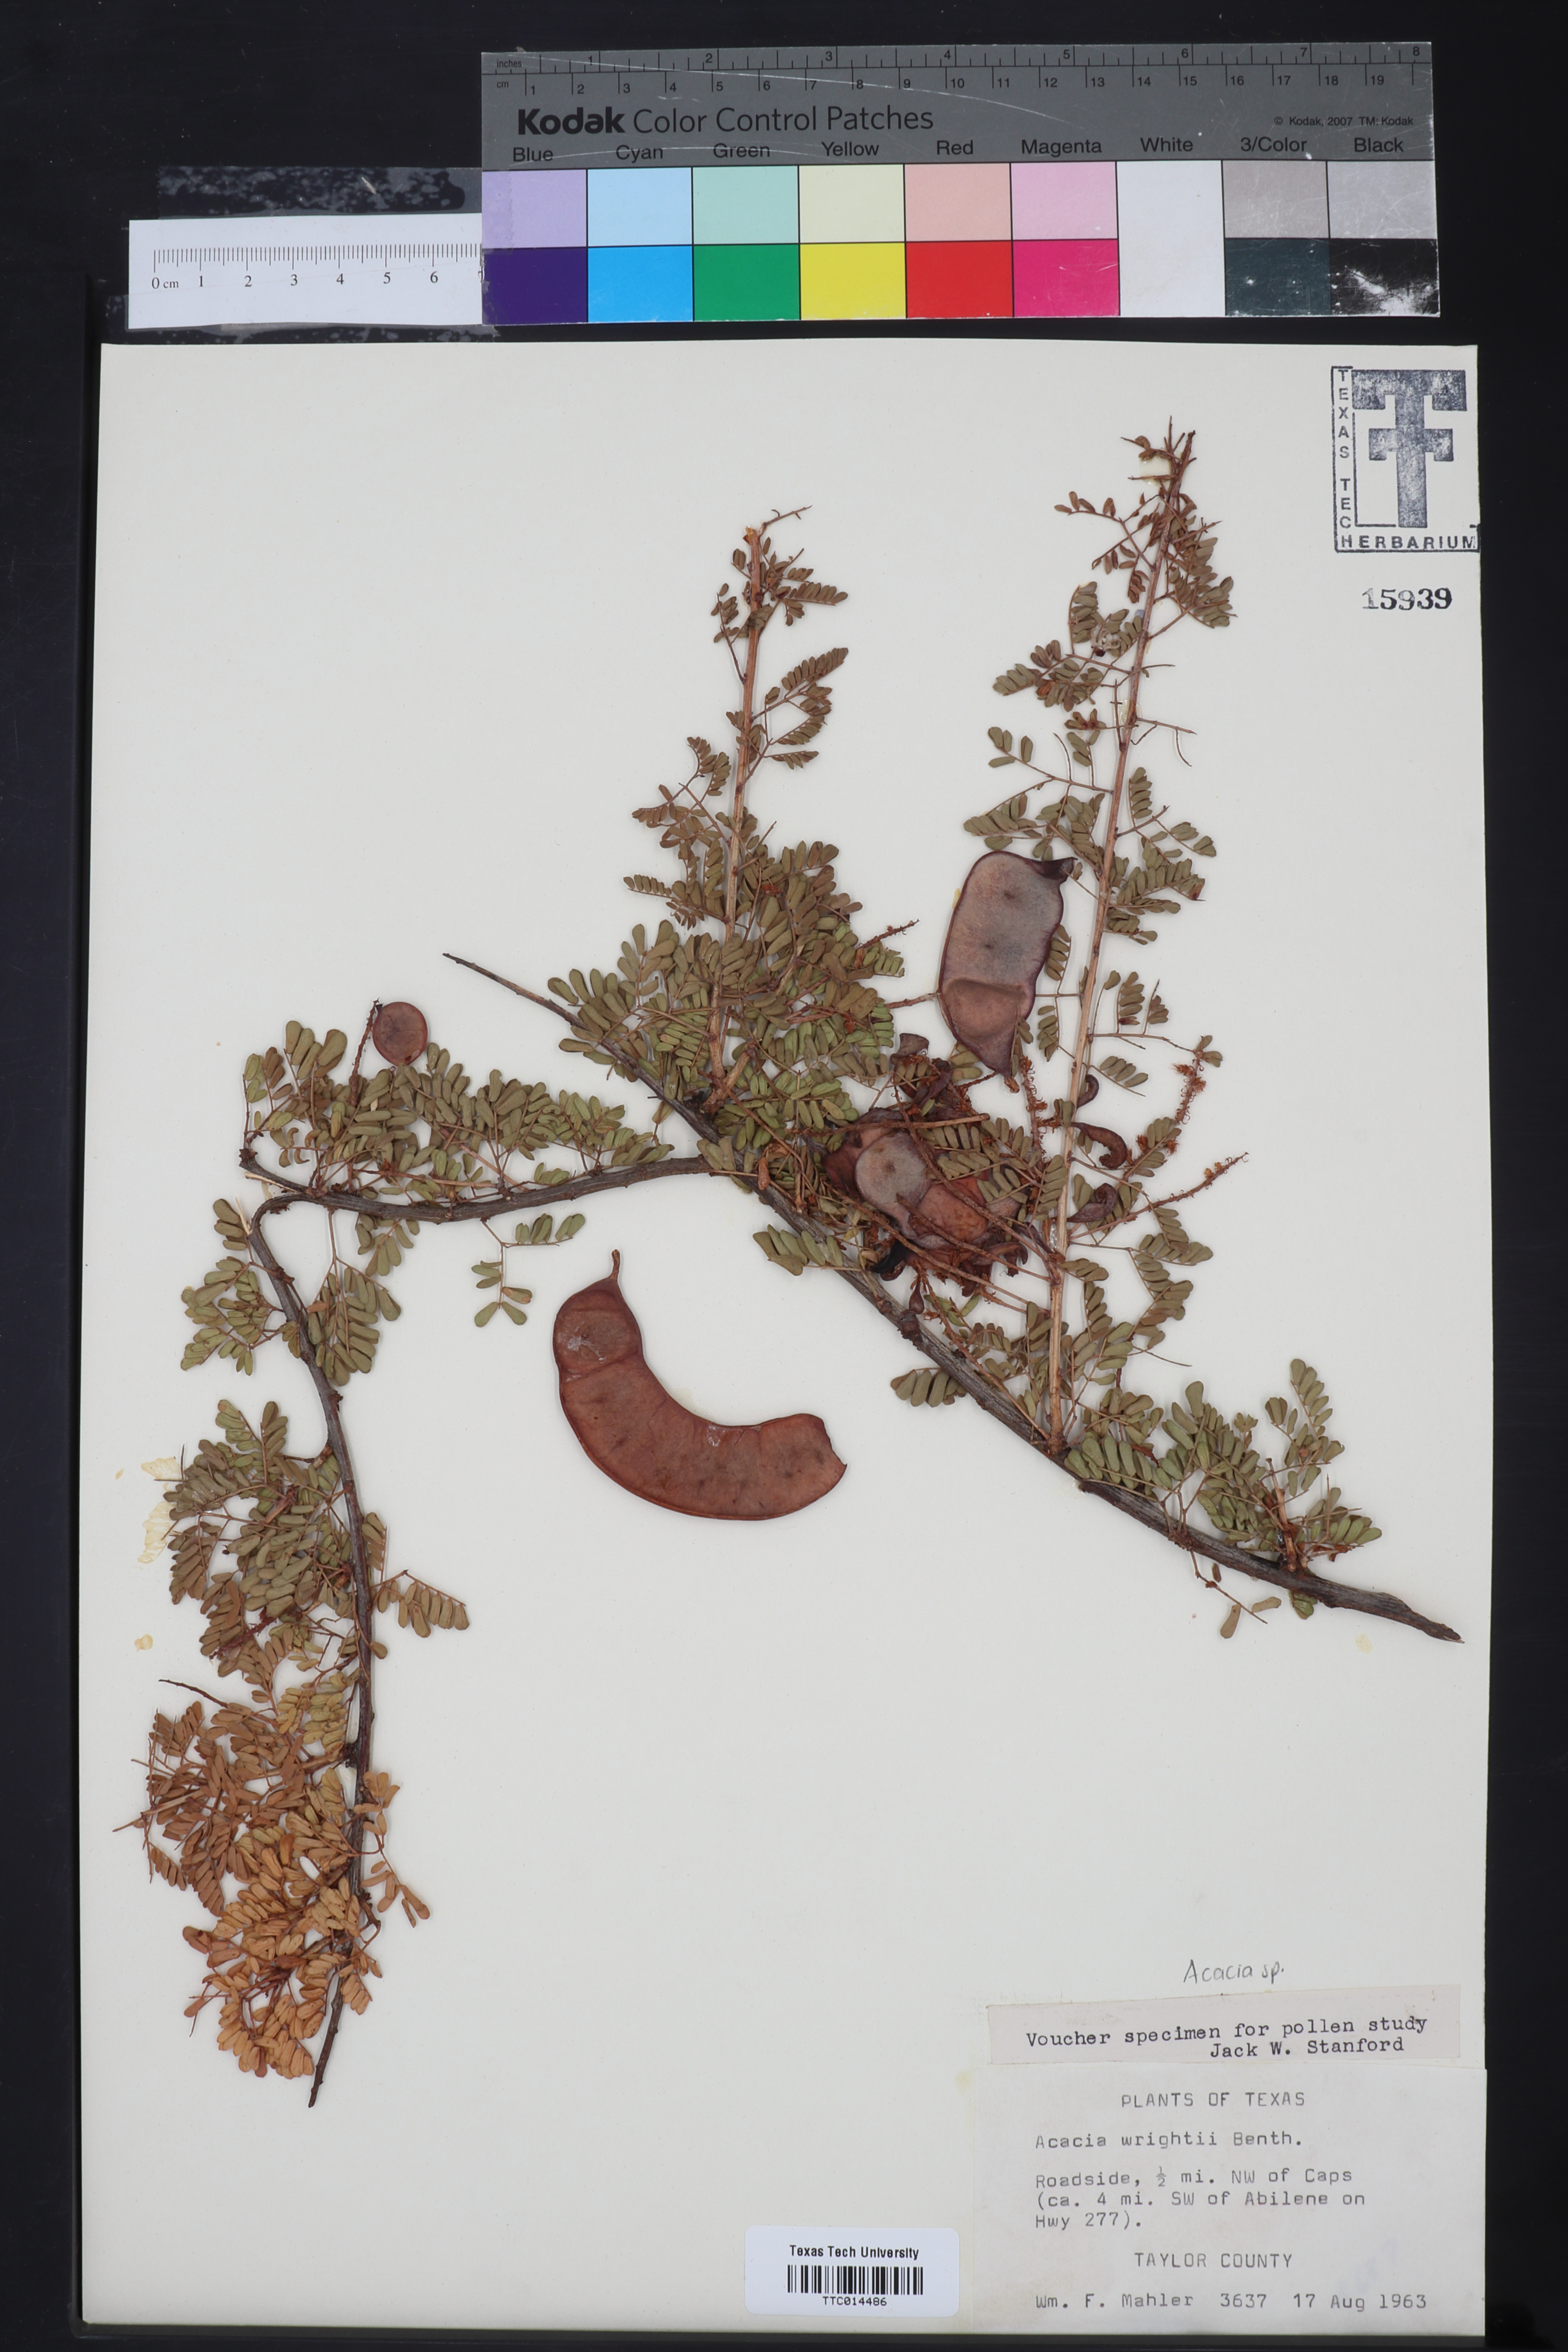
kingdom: Plantae
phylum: Tracheophyta
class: Magnoliopsida
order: Fabales
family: Fabaceae
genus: Senegalia
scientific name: Senegalia wrightii
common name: Texas cat's-claw
